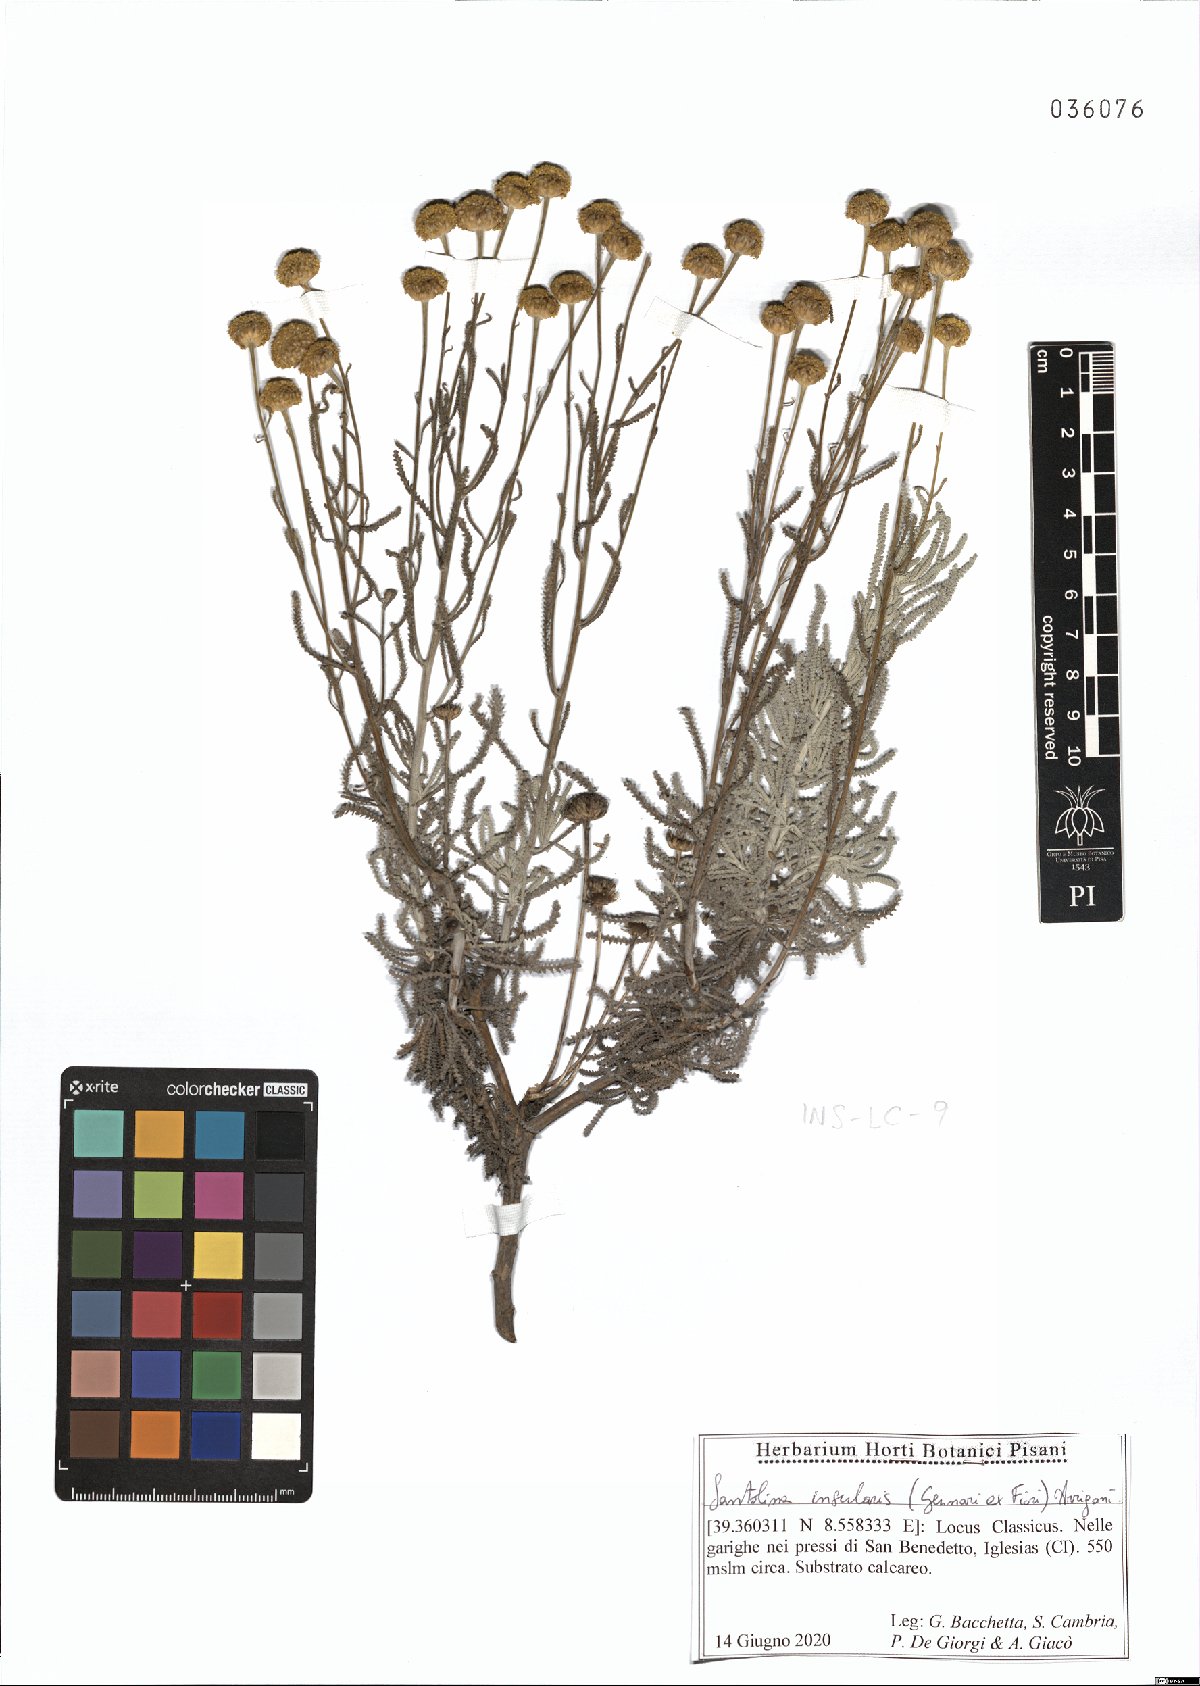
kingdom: Plantae
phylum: Tracheophyta
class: Magnoliopsida
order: Asterales
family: Asteraceae
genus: Santolina
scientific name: Santolina insularis
